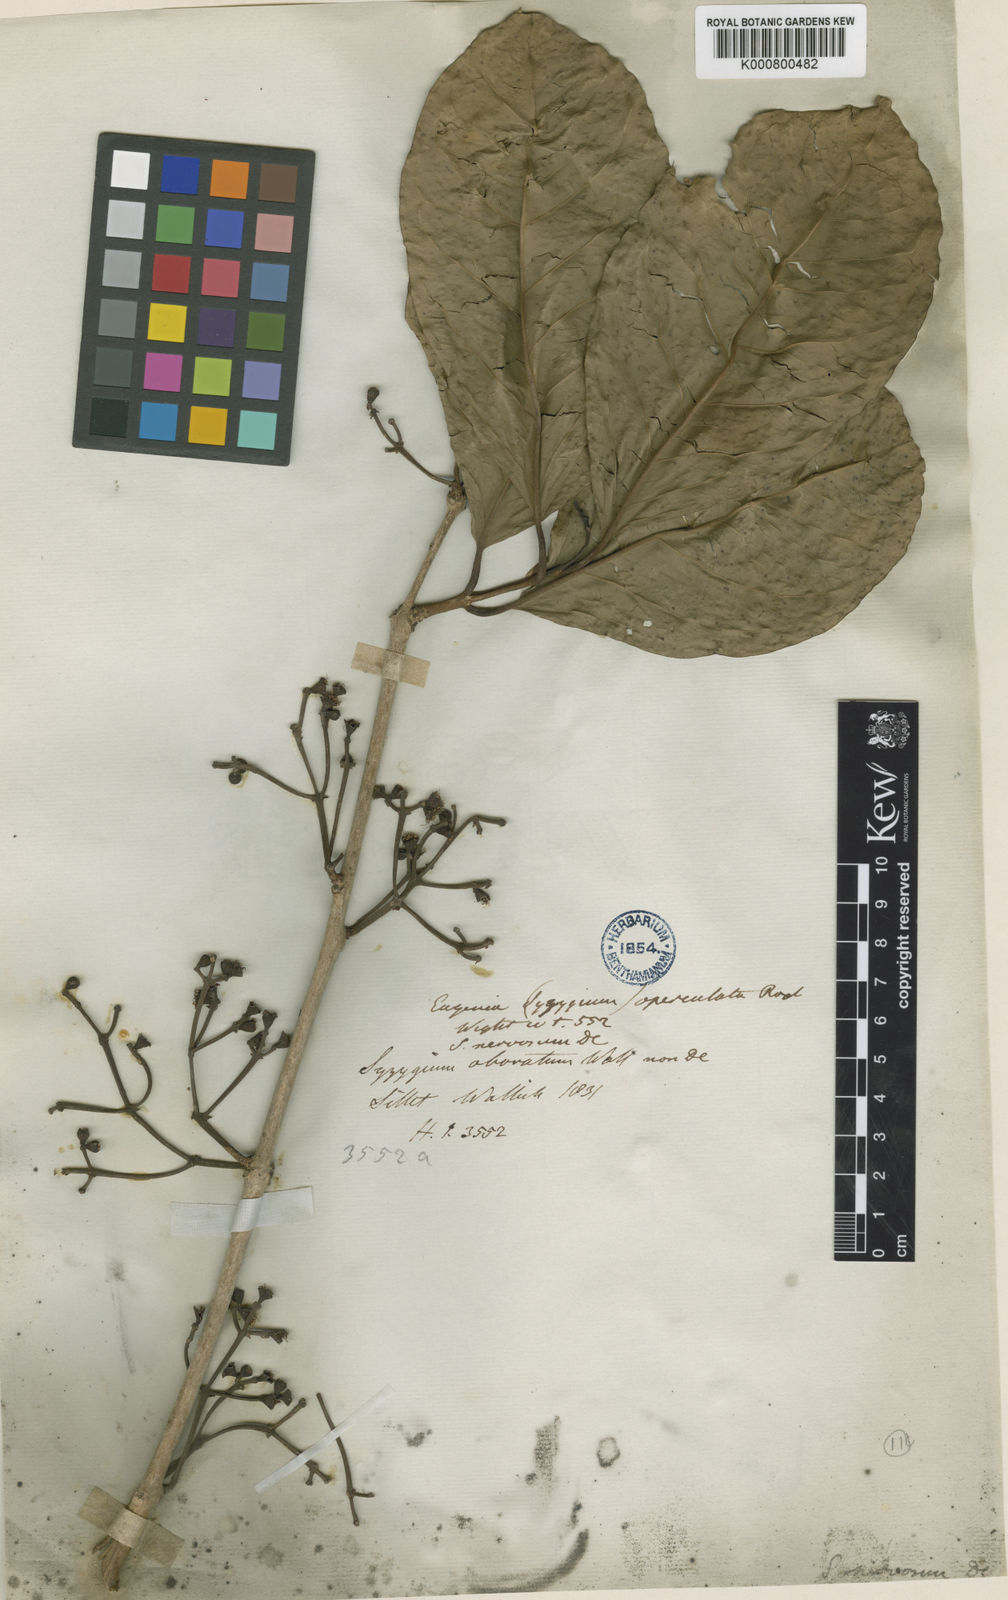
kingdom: Plantae
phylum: Tracheophyta
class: Magnoliopsida
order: Myrtales
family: Myrtaceae
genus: Syzygium
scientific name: Syzygium nervosum
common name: Daly river satinash
